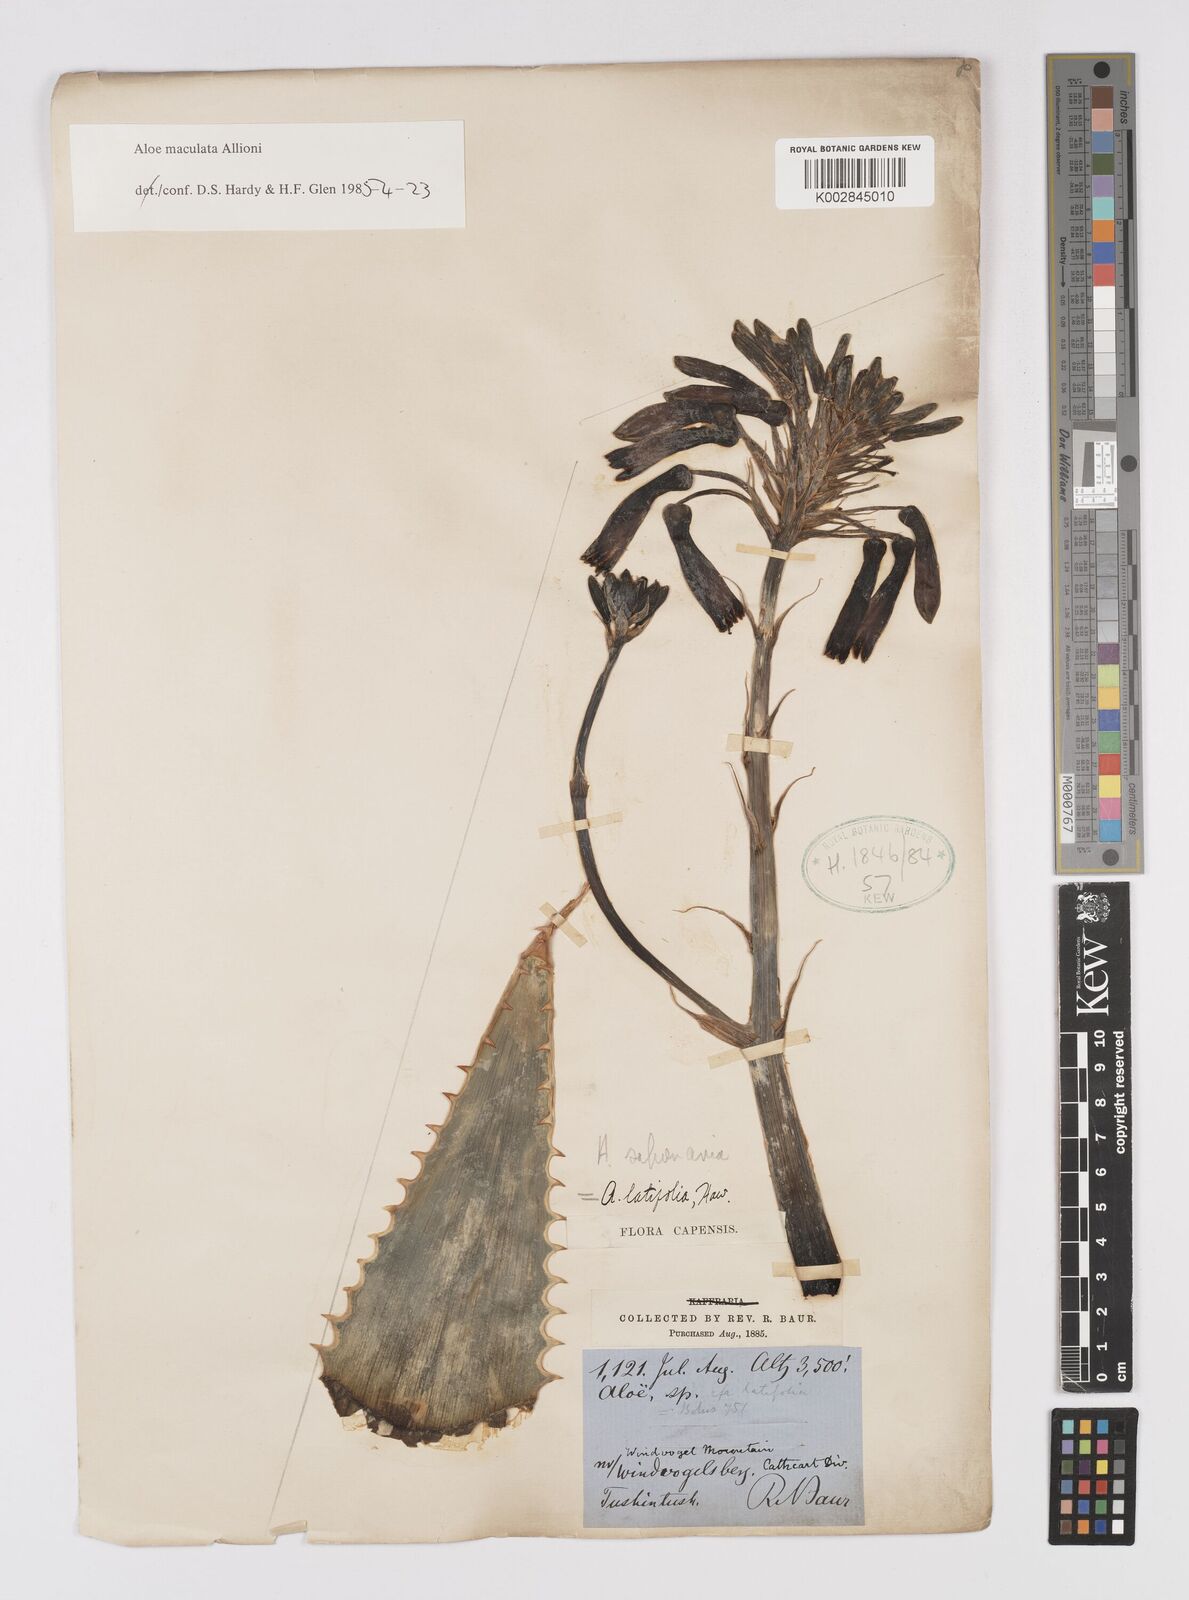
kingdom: Plantae
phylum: Tracheophyta
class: Liliopsida
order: Asparagales
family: Asphodelaceae
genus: Aloe
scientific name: Aloe microstigma
